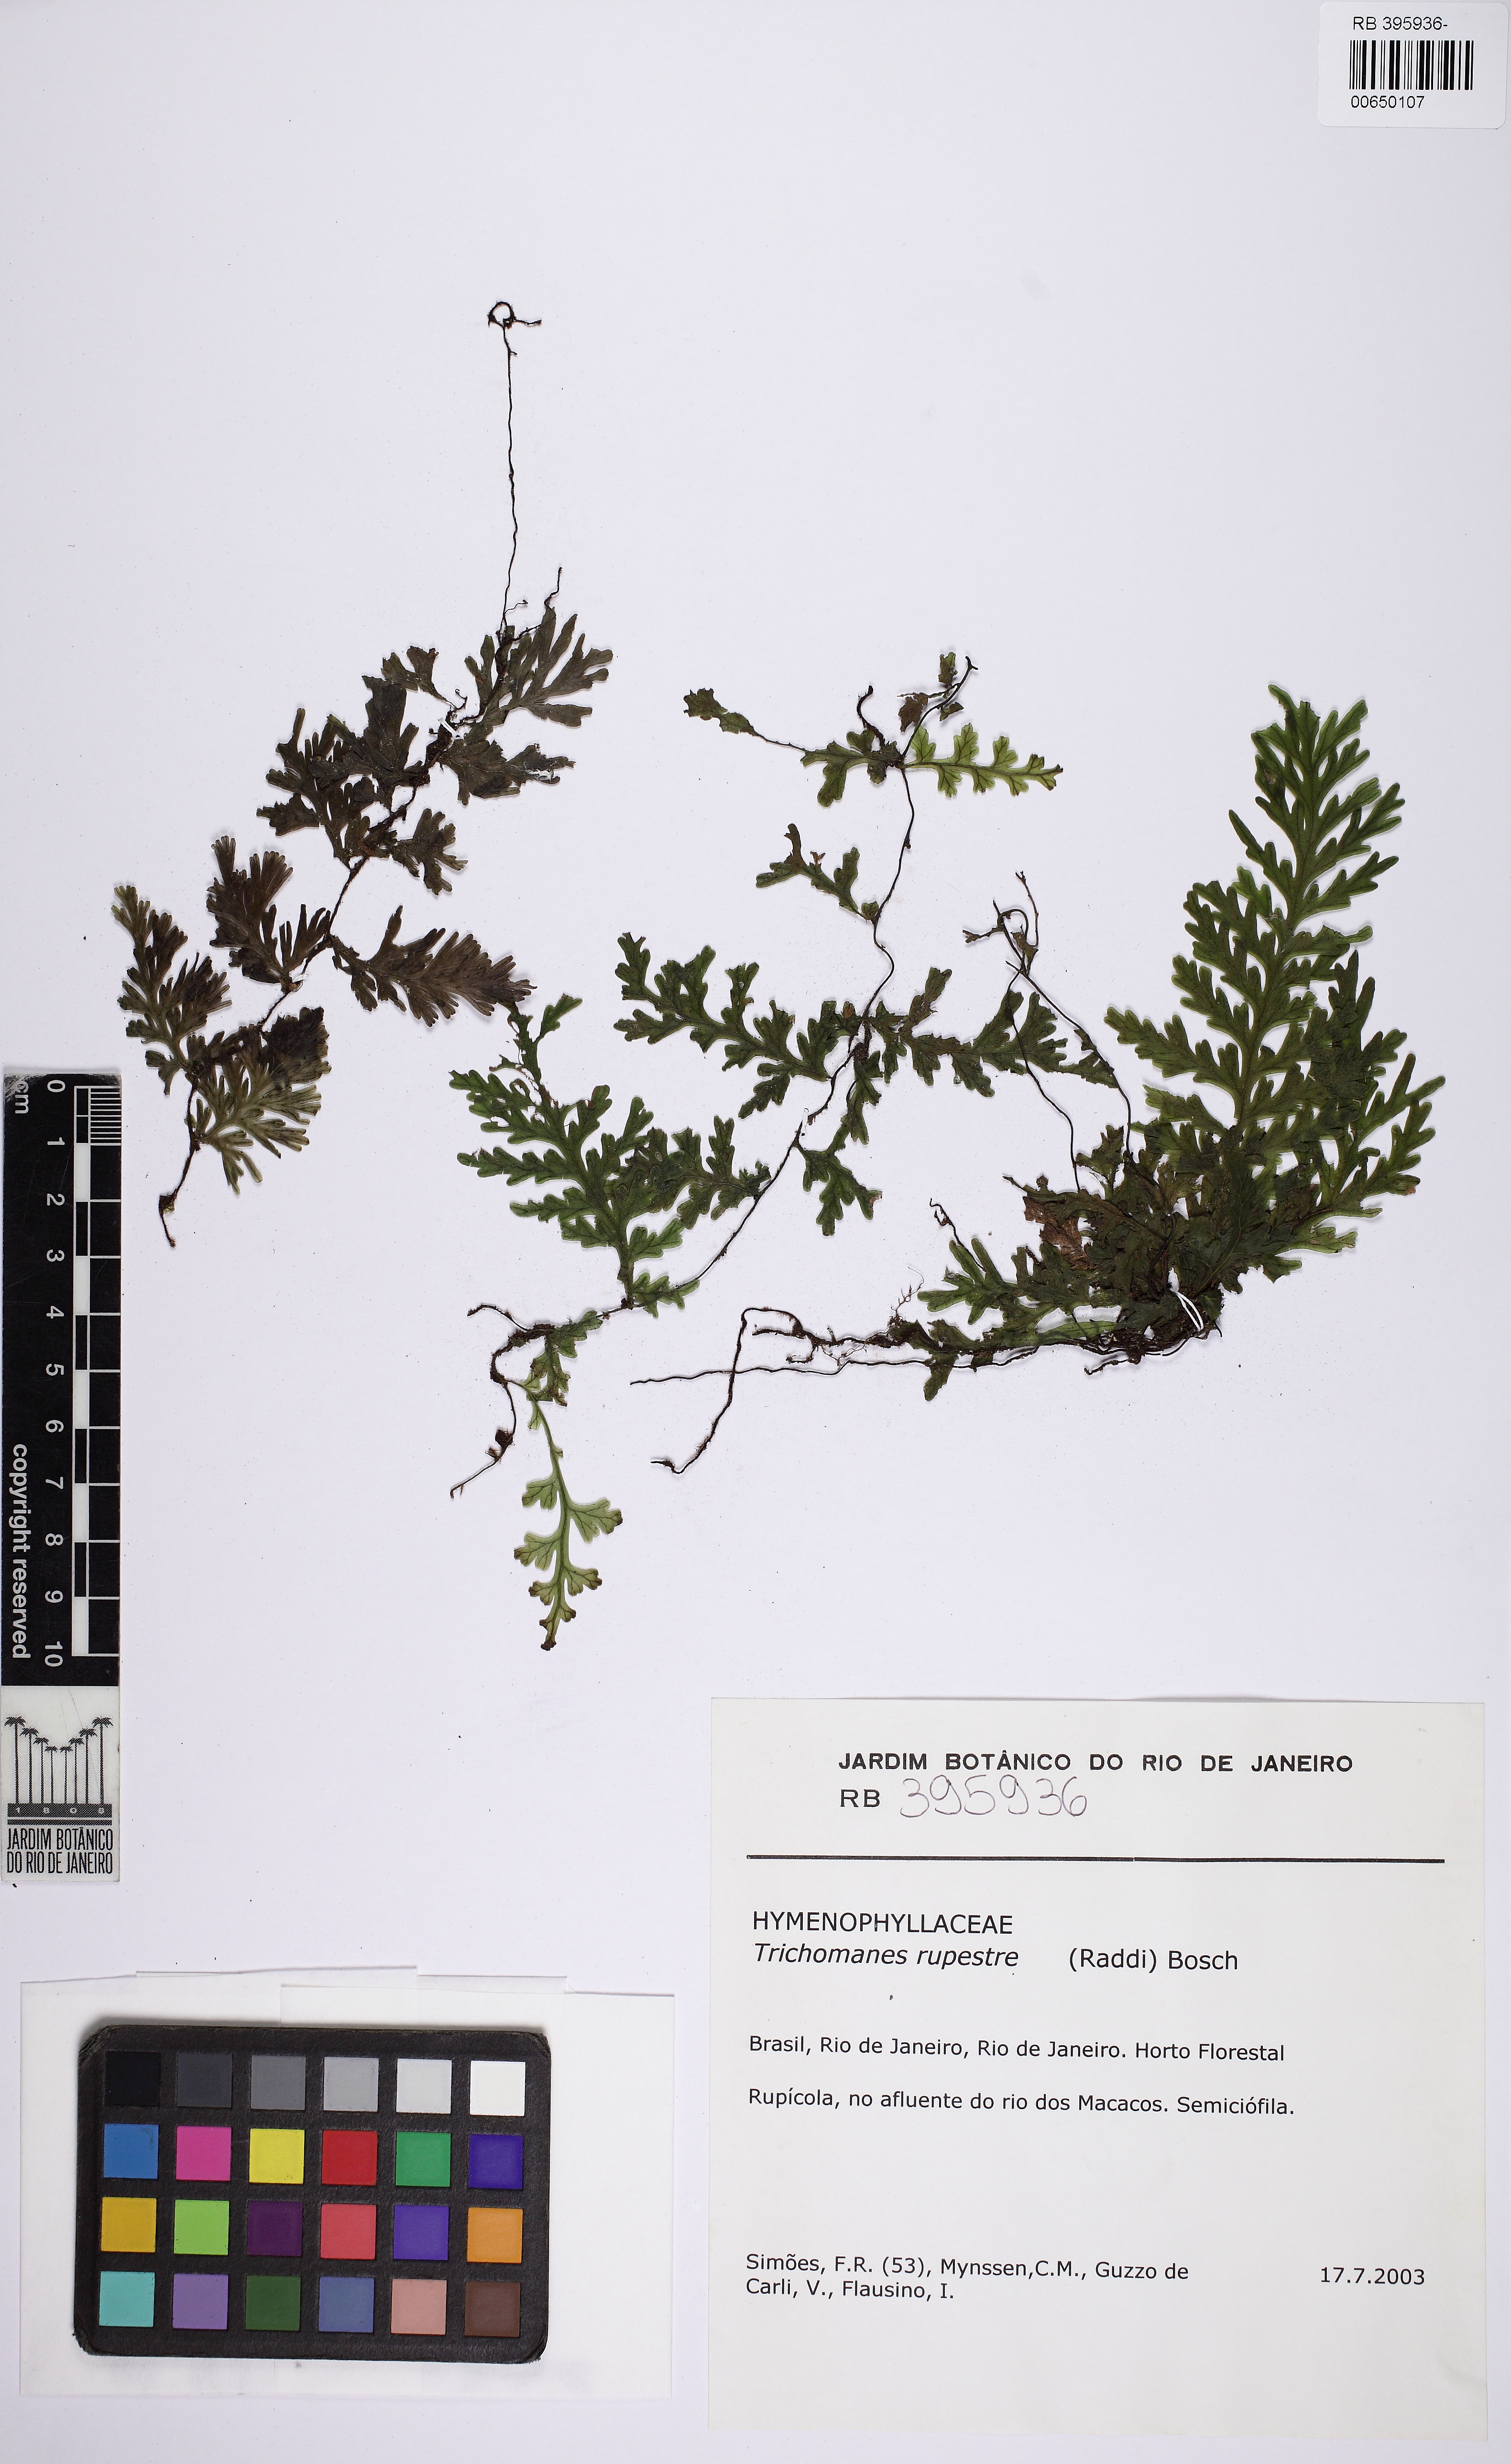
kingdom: Plantae
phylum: Tracheophyta
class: Polypodiopsida
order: Hymenophyllales
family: Hymenophyllaceae
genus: Vandenboschia
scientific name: Vandenboschia rupestris
